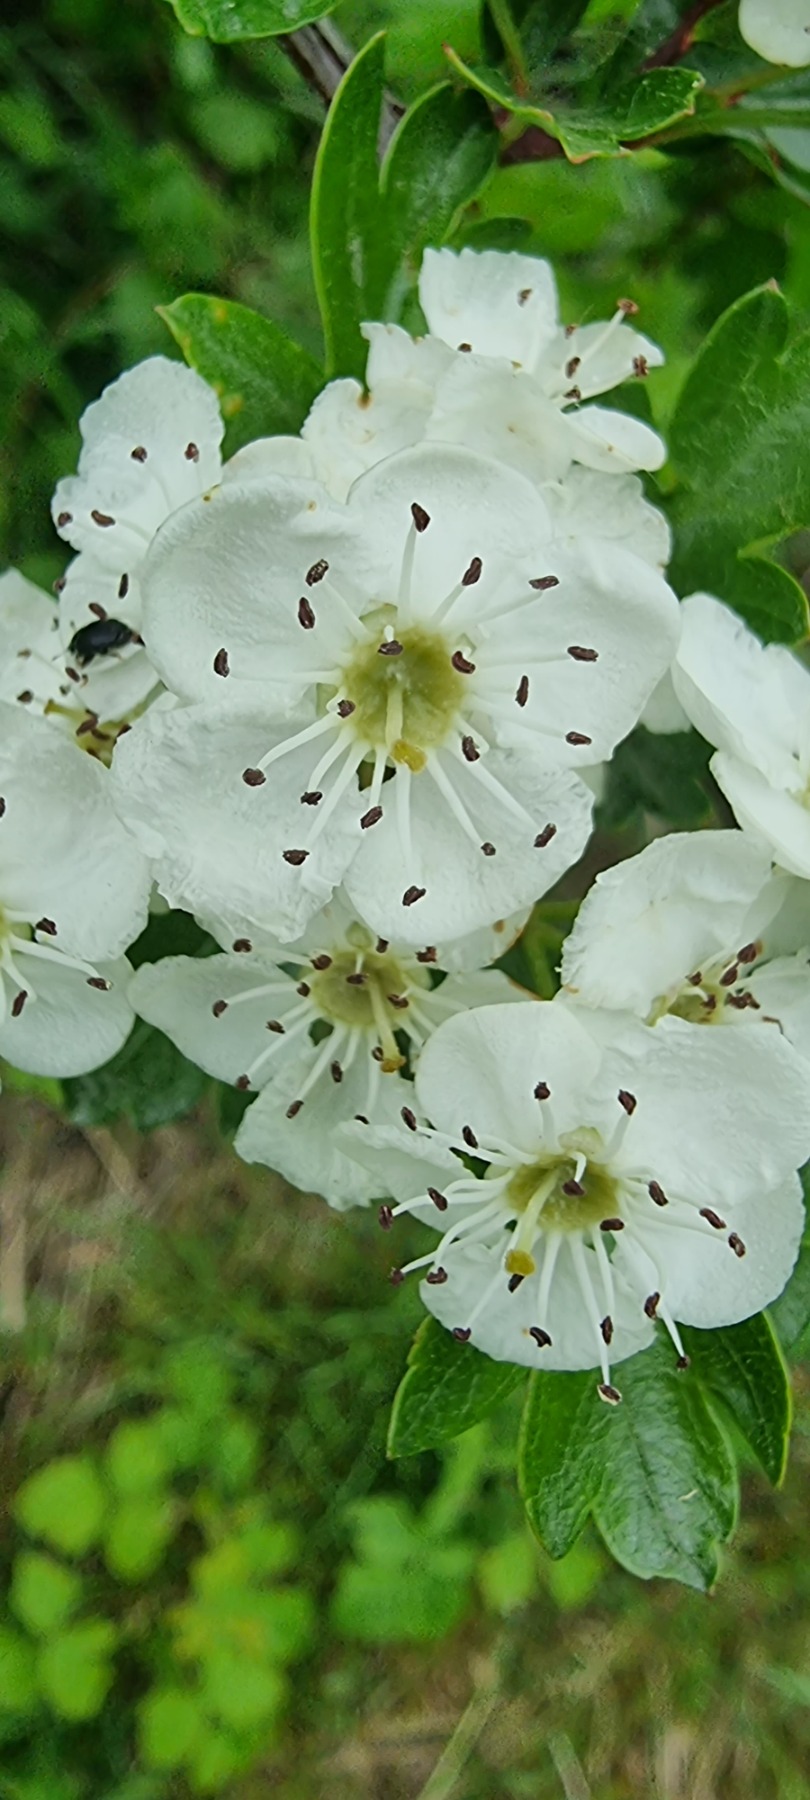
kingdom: Plantae
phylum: Tracheophyta
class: Magnoliopsida
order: Rosales
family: Rosaceae
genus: Crataegus
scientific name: Crataegus monogyna
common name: Engriflet hvidtjørn
